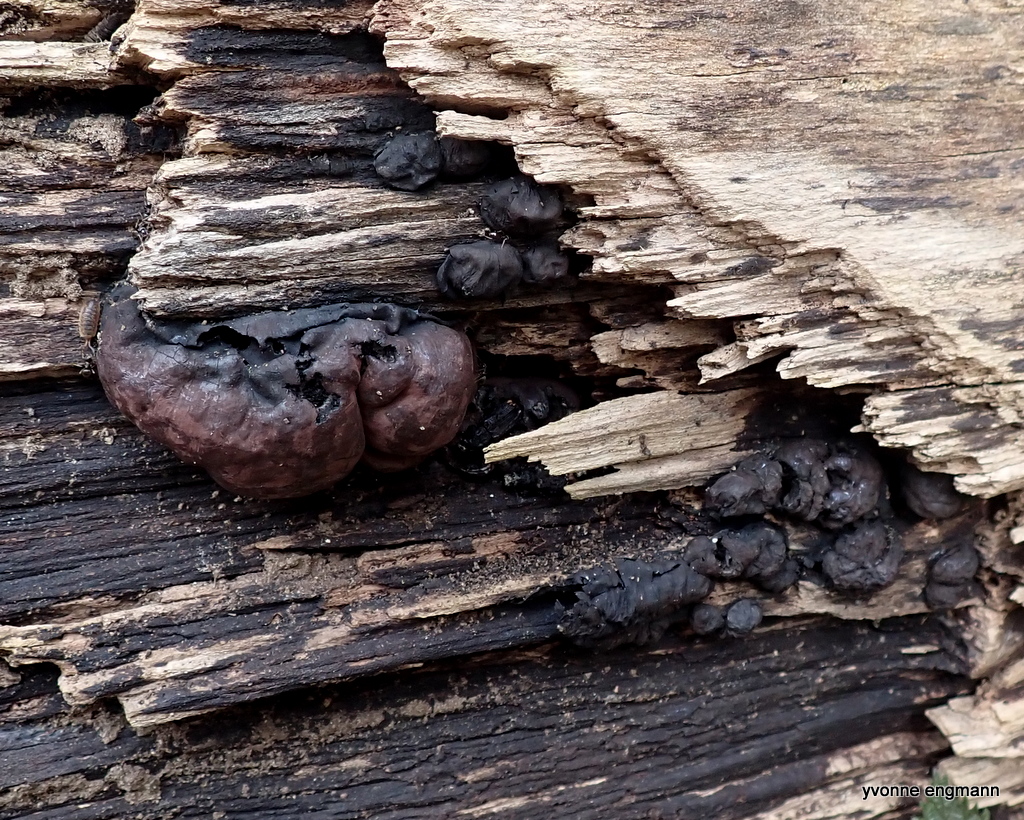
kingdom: Fungi
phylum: Ascomycota
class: Sordariomycetes
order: Xylariales
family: Hypoxylaceae
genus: Daldinia
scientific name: Daldinia concentrica
